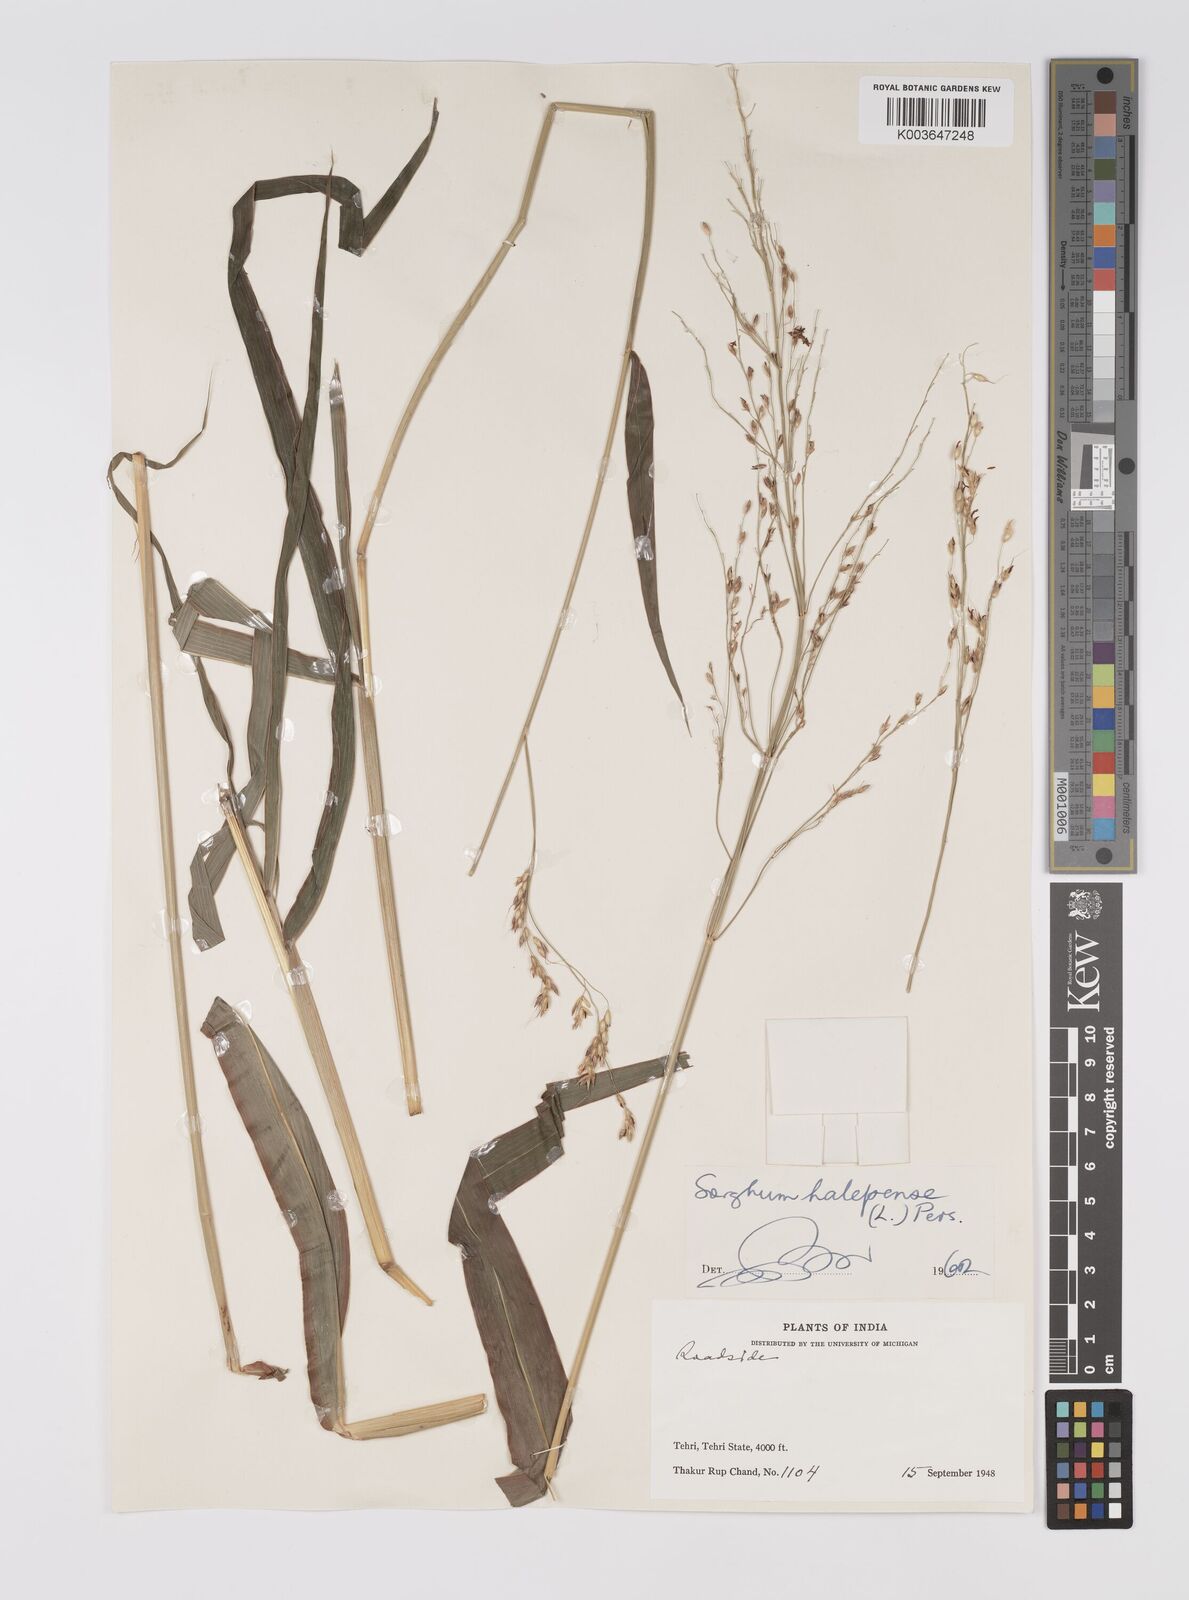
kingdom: Plantae
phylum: Tracheophyta
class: Liliopsida
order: Poales
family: Poaceae
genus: Sorghum
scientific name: Sorghum halepense
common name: Johnson-grass
